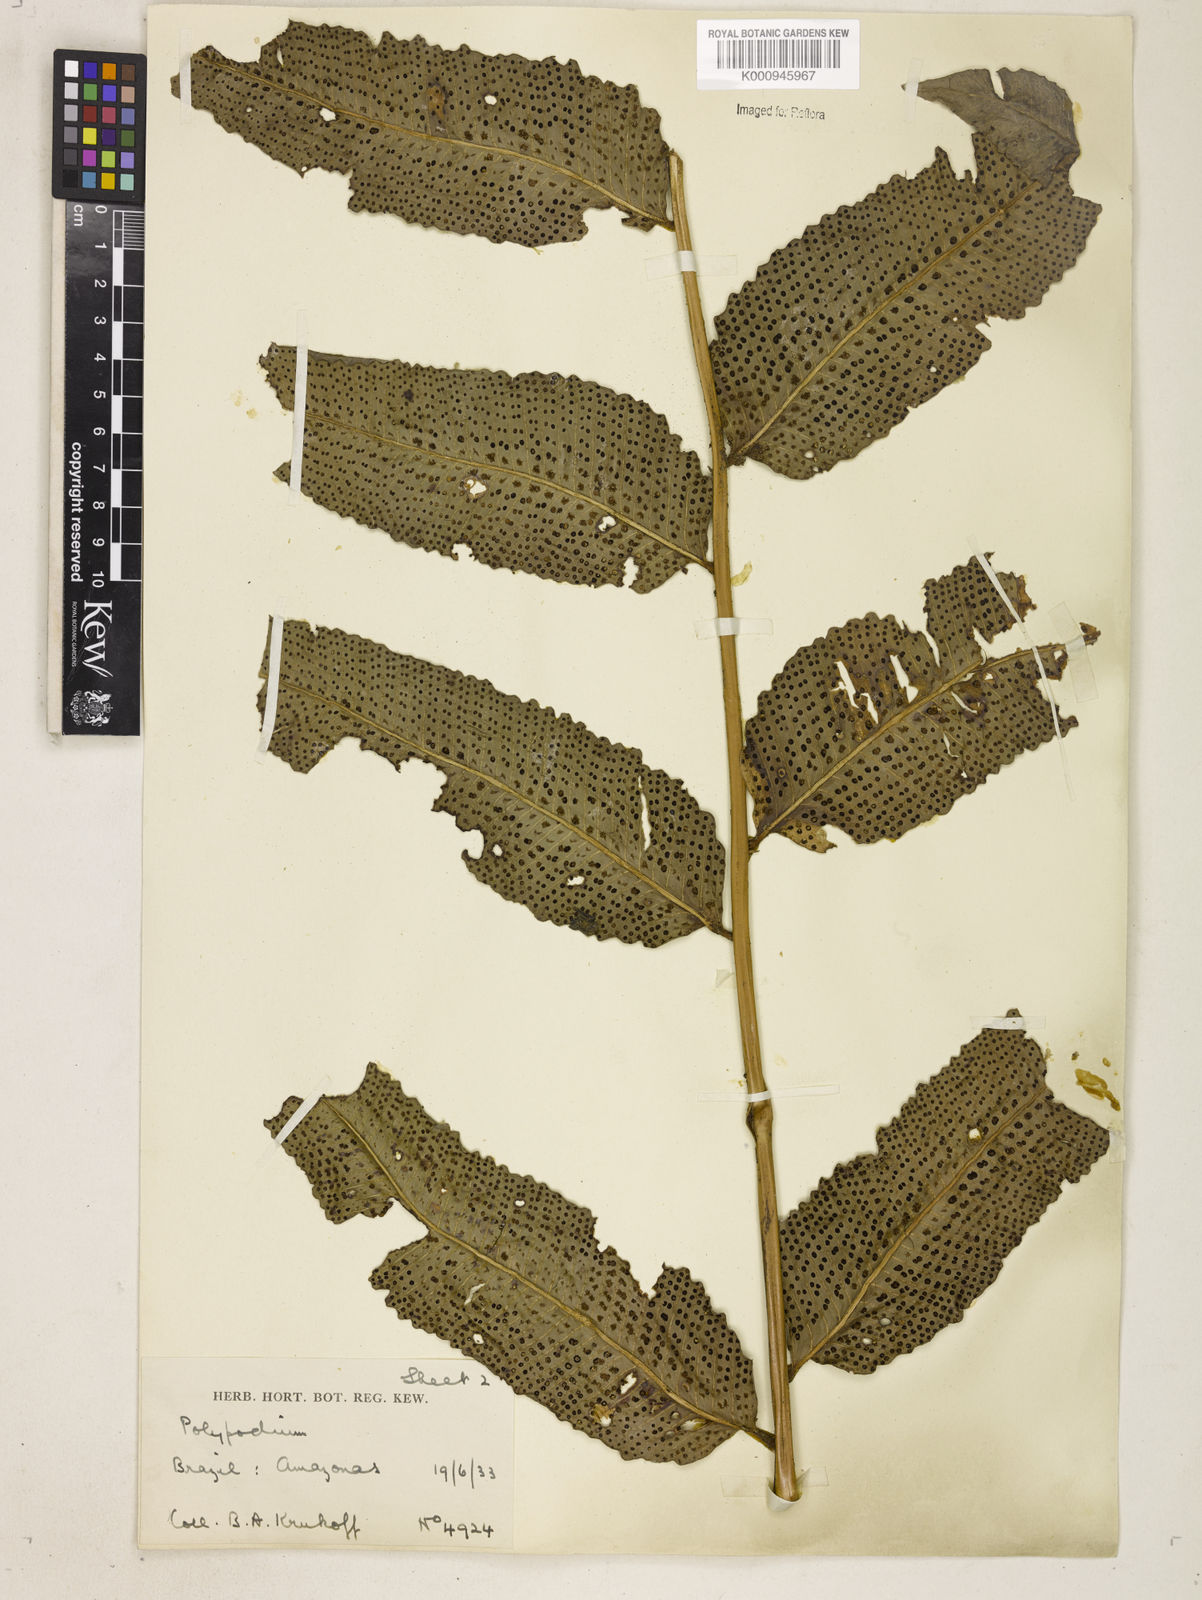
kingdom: Plantae
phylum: Tracheophyta
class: Polypodiopsida
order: Polypodiales
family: Dryopteridaceae
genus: Cyclodium
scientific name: Cyclodium meniscioides
